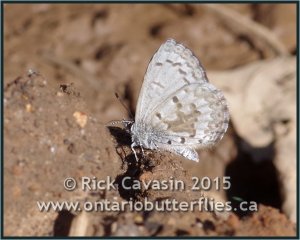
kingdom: Animalia
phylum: Arthropoda
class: Insecta
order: Lepidoptera
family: Lycaenidae
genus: Celastrina
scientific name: Celastrina lucia
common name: Northern Spring Azure
